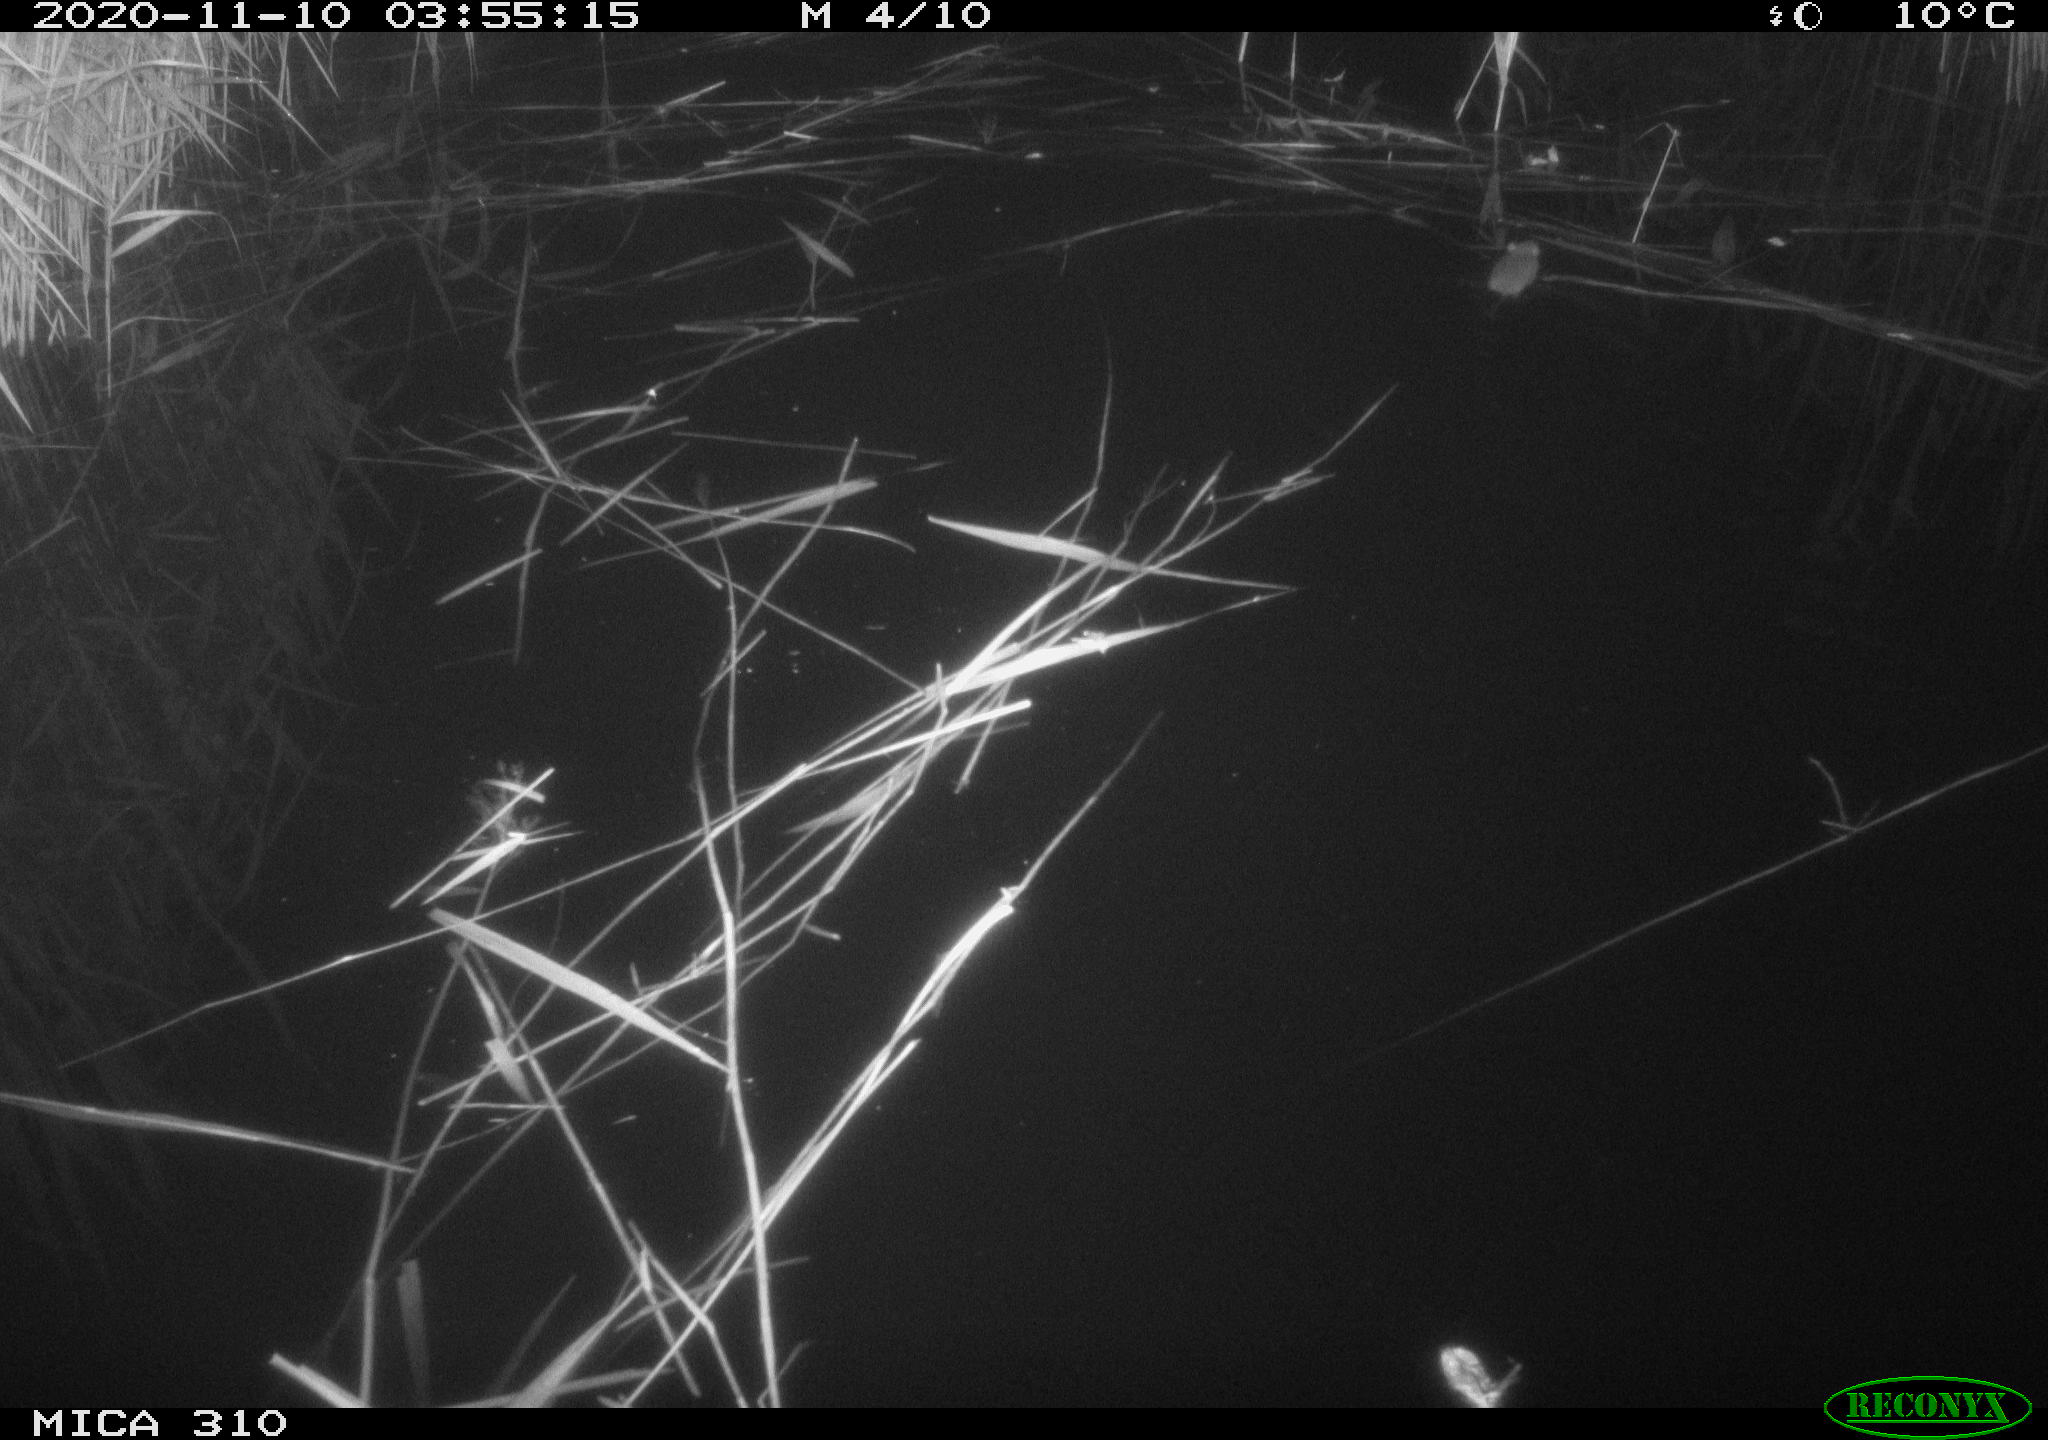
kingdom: Animalia
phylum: Chordata
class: Mammalia
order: Rodentia
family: Muridae
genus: Rattus
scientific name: Rattus norvegicus
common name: Brown rat
